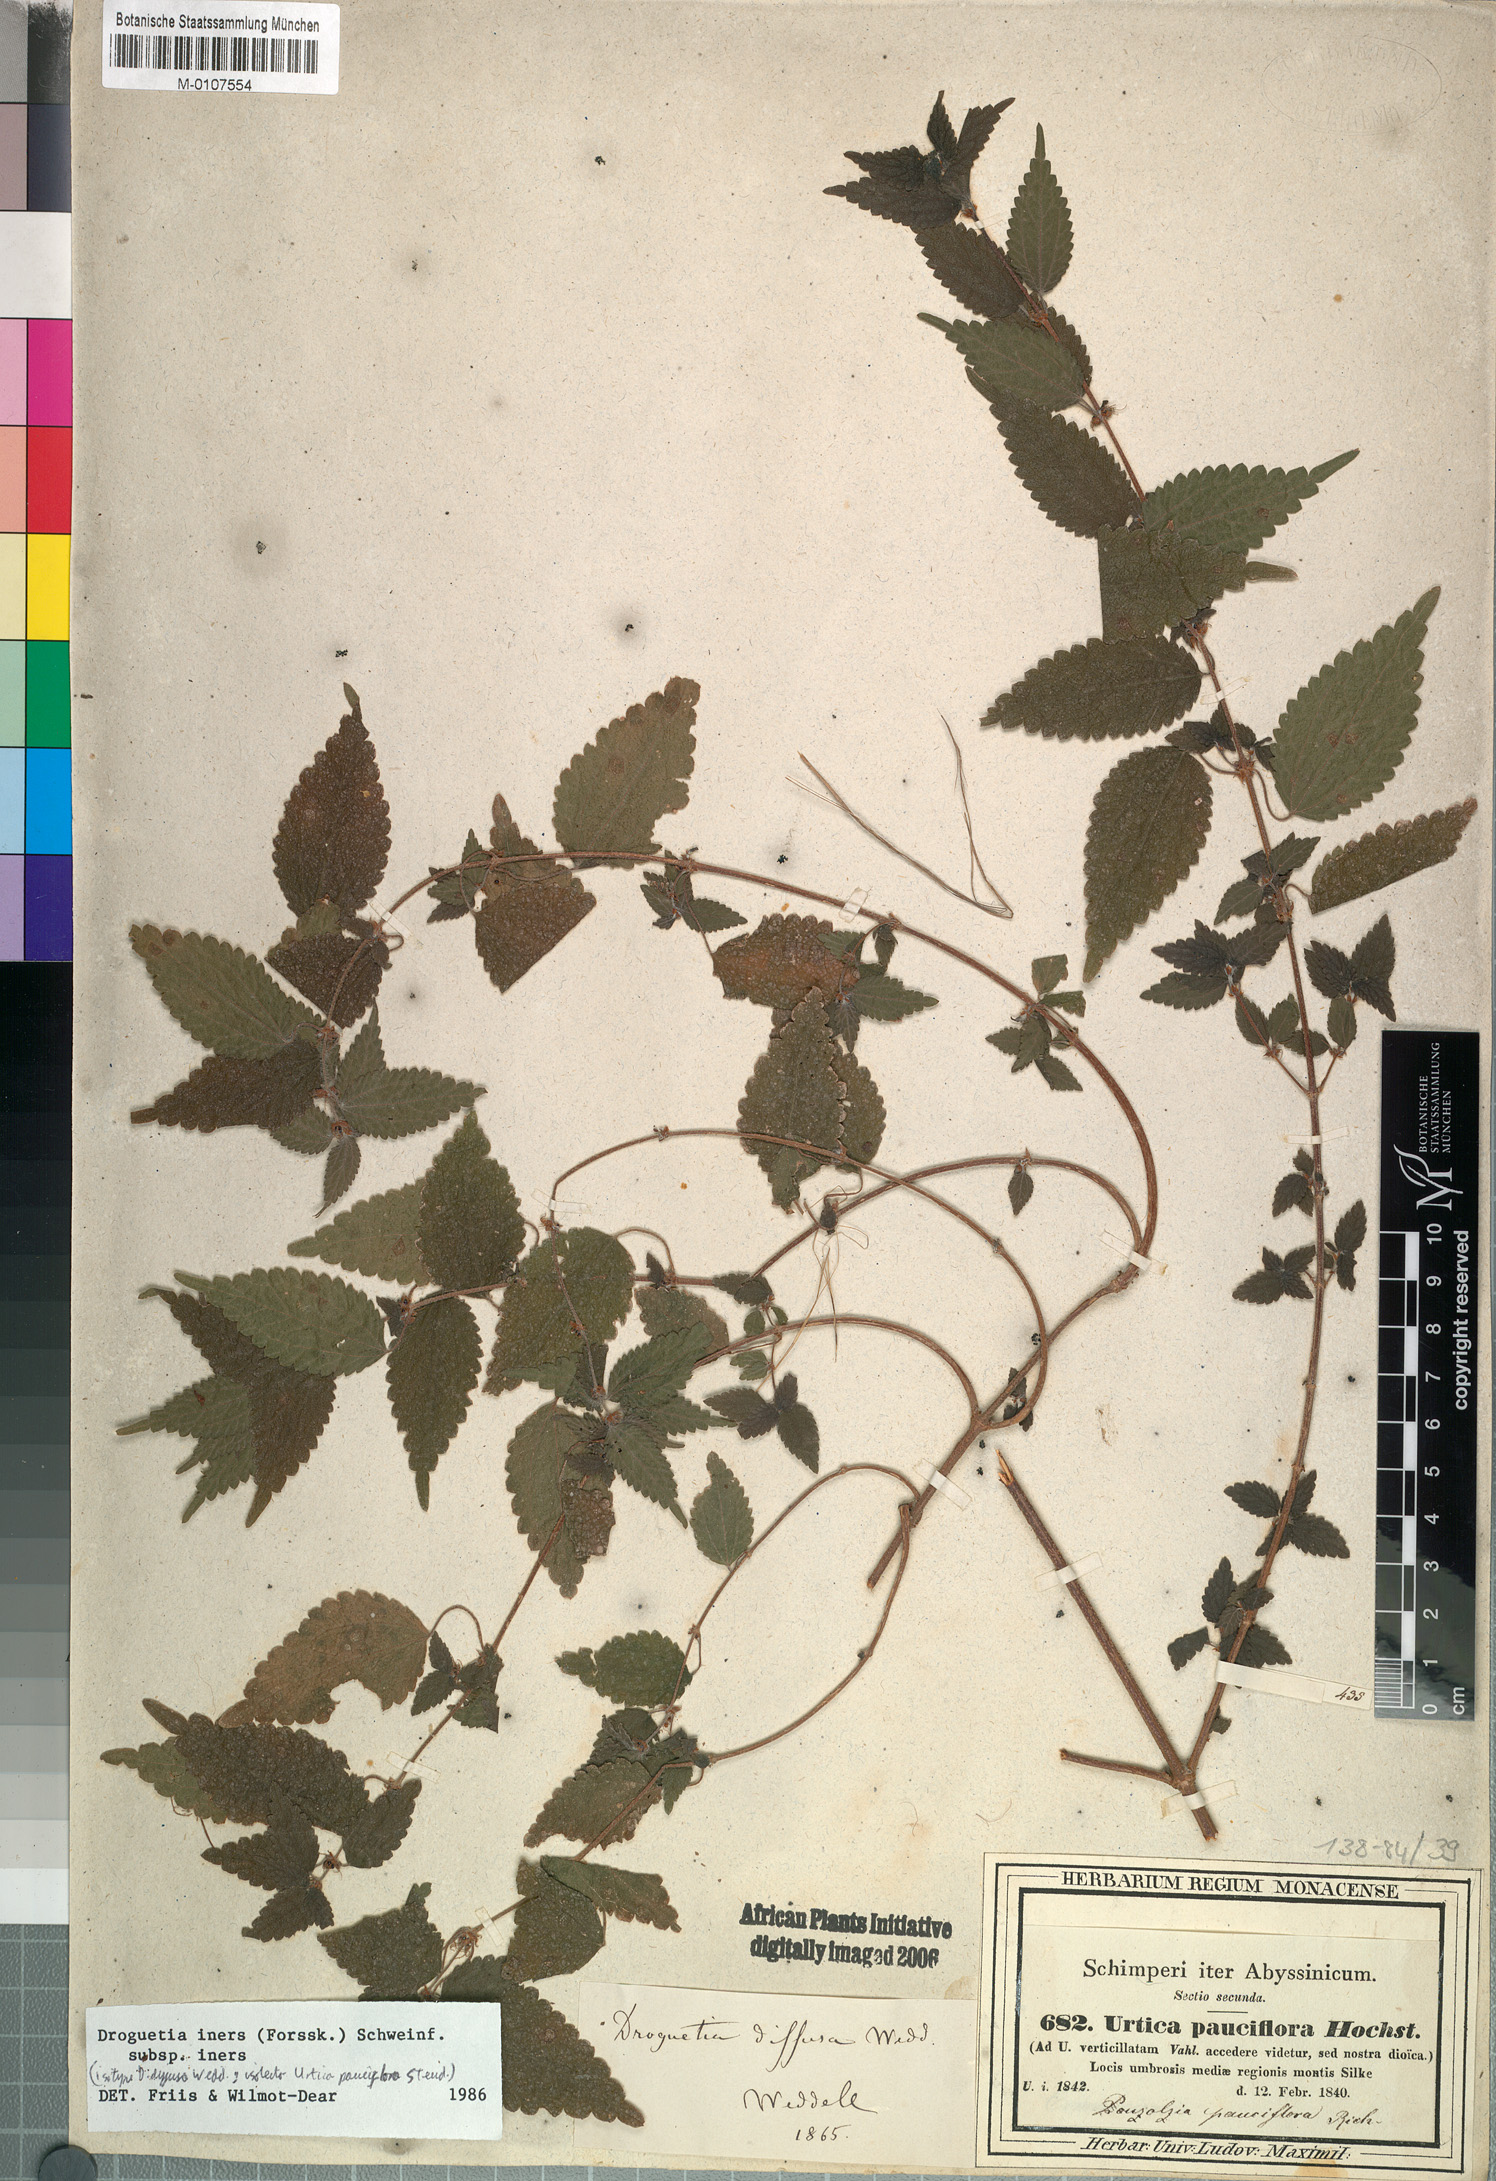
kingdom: Plantae
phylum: Tracheophyta
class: Magnoliopsida
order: Rosales
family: Urticaceae
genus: Droguetia
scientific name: Droguetia iners
